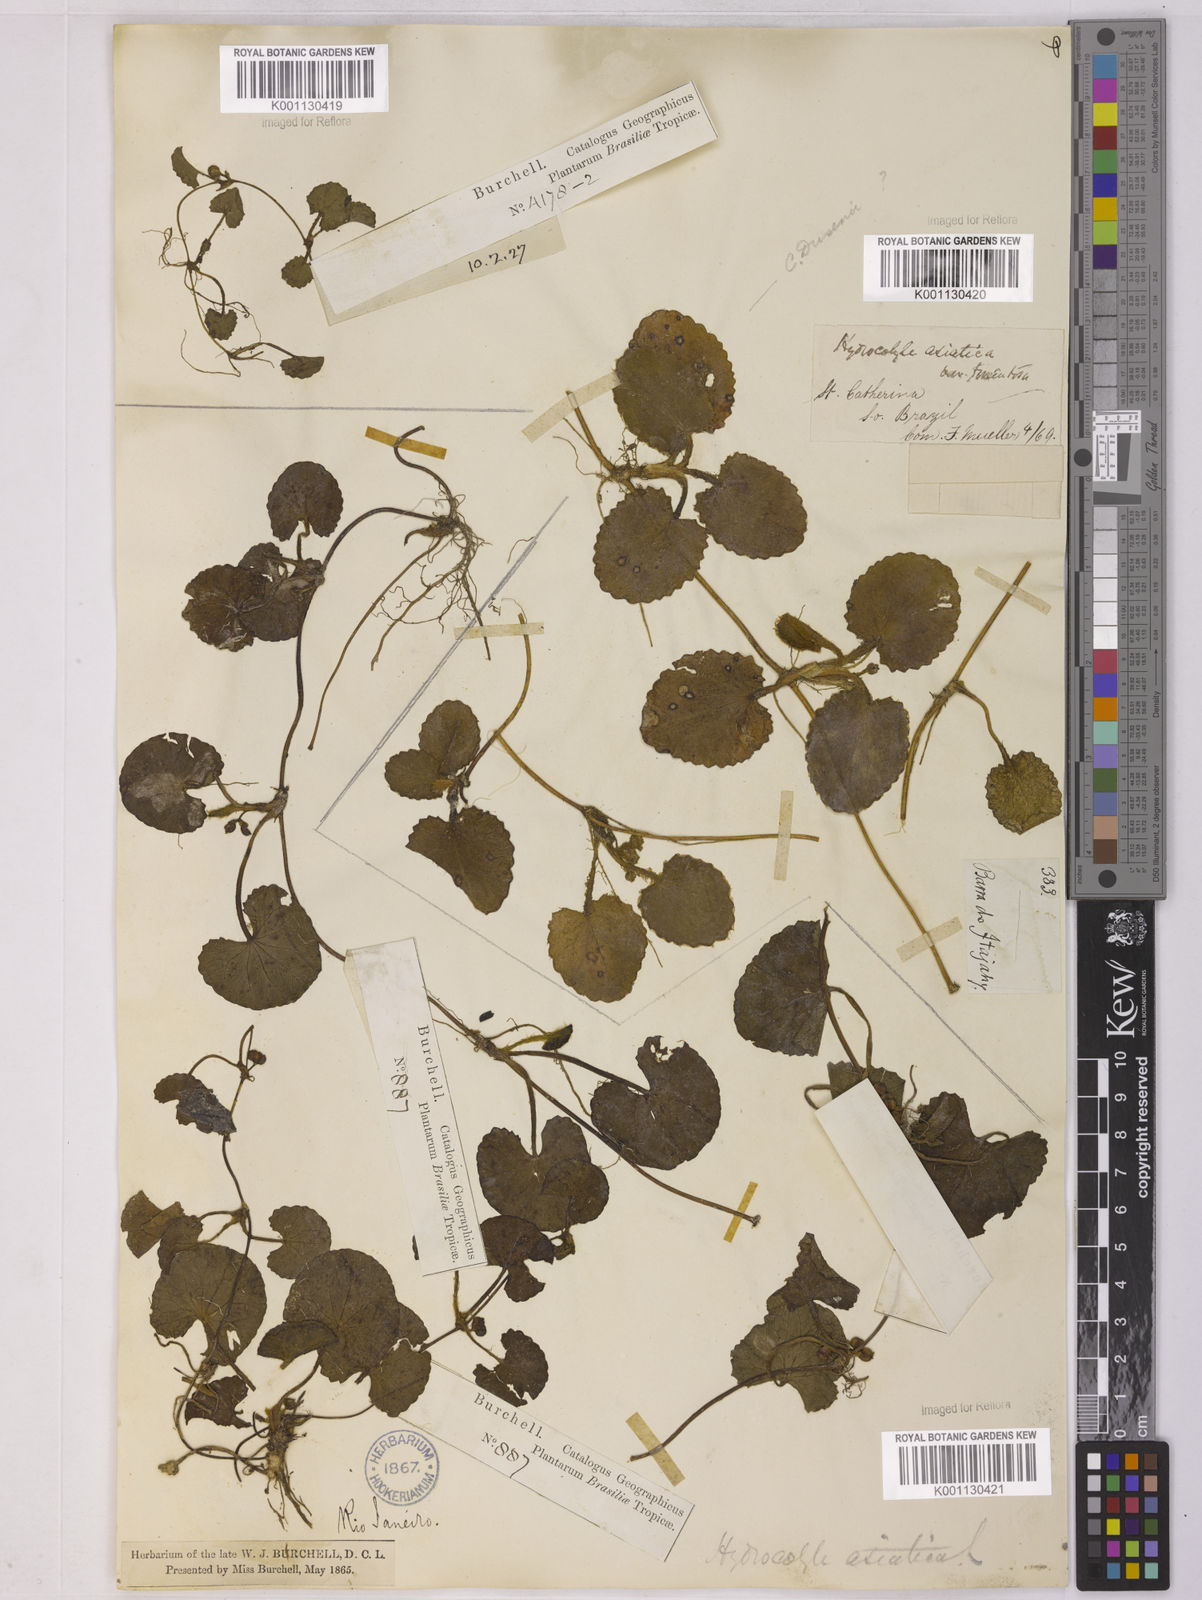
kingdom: Plantae
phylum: Tracheophyta
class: Magnoliopsida
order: Apiales
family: Apiaceae
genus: Centella
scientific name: Centella erecta
